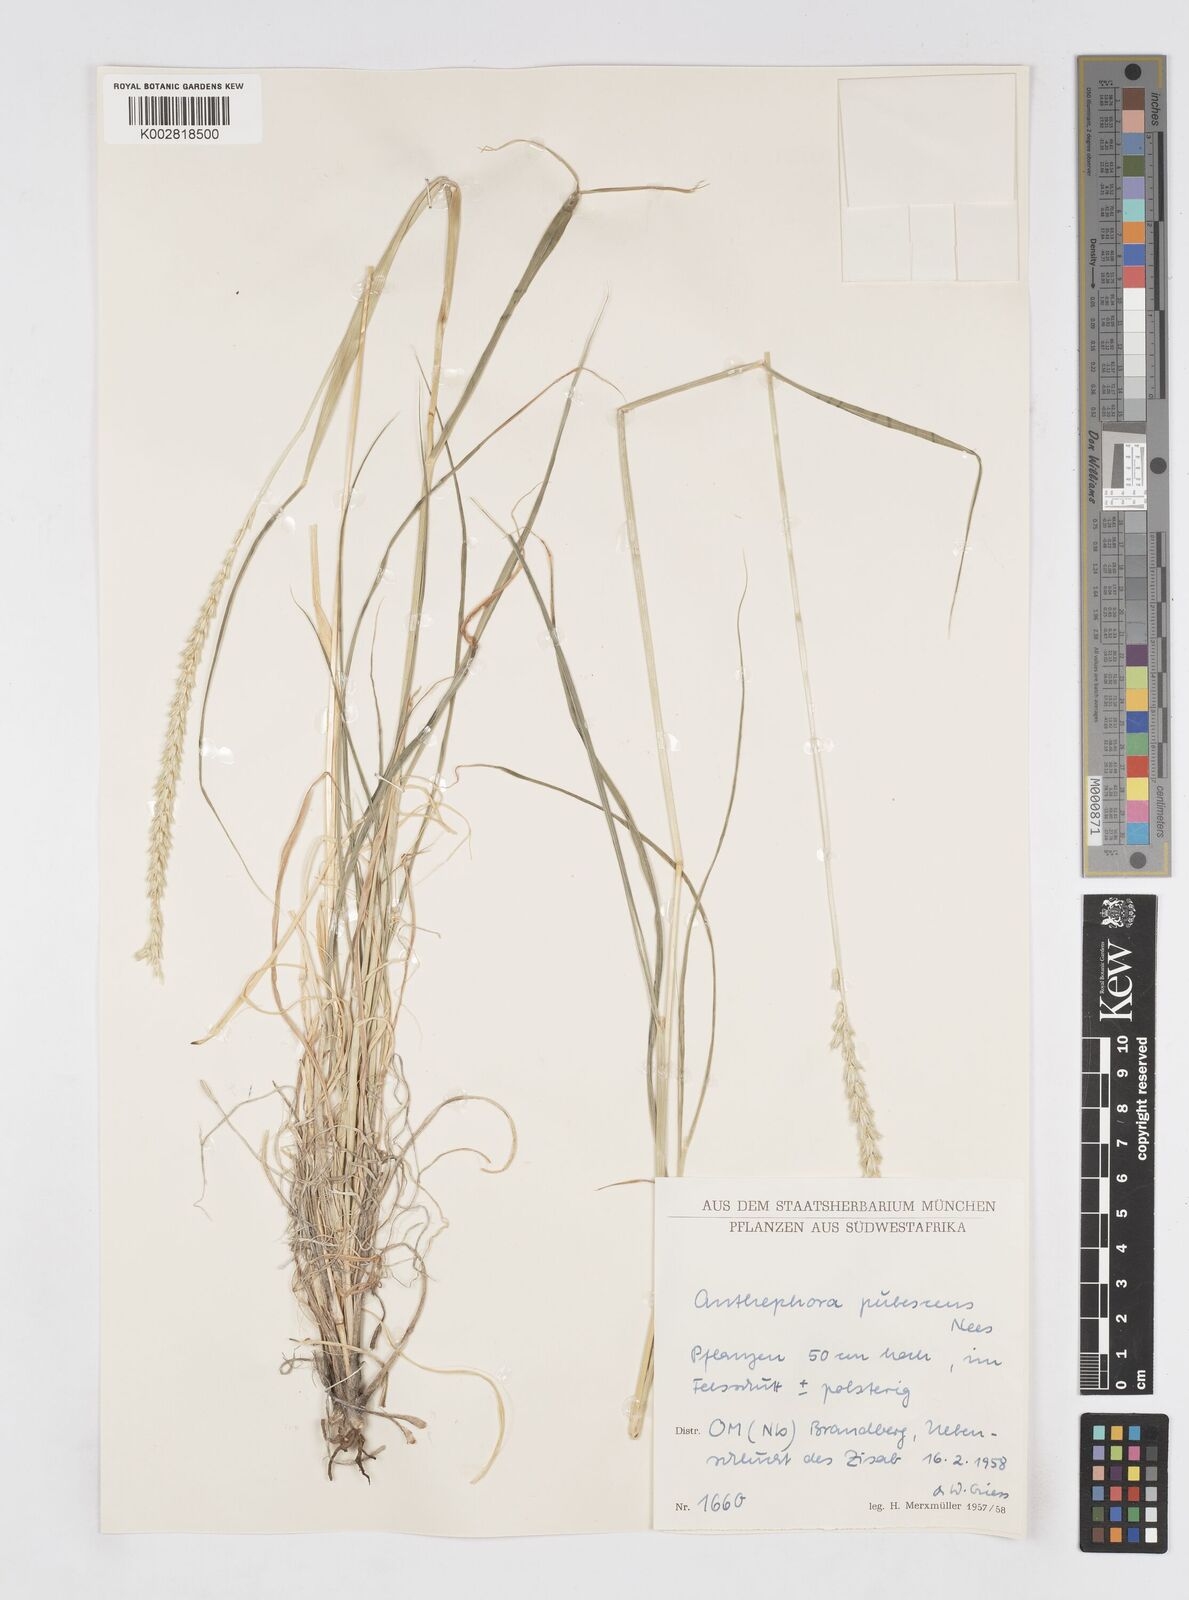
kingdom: Plantae
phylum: Tracheophyta
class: Liliopsida
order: Poales
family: Poaceae
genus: Anthephora
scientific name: Anthephora pubescens
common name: Wool grass
